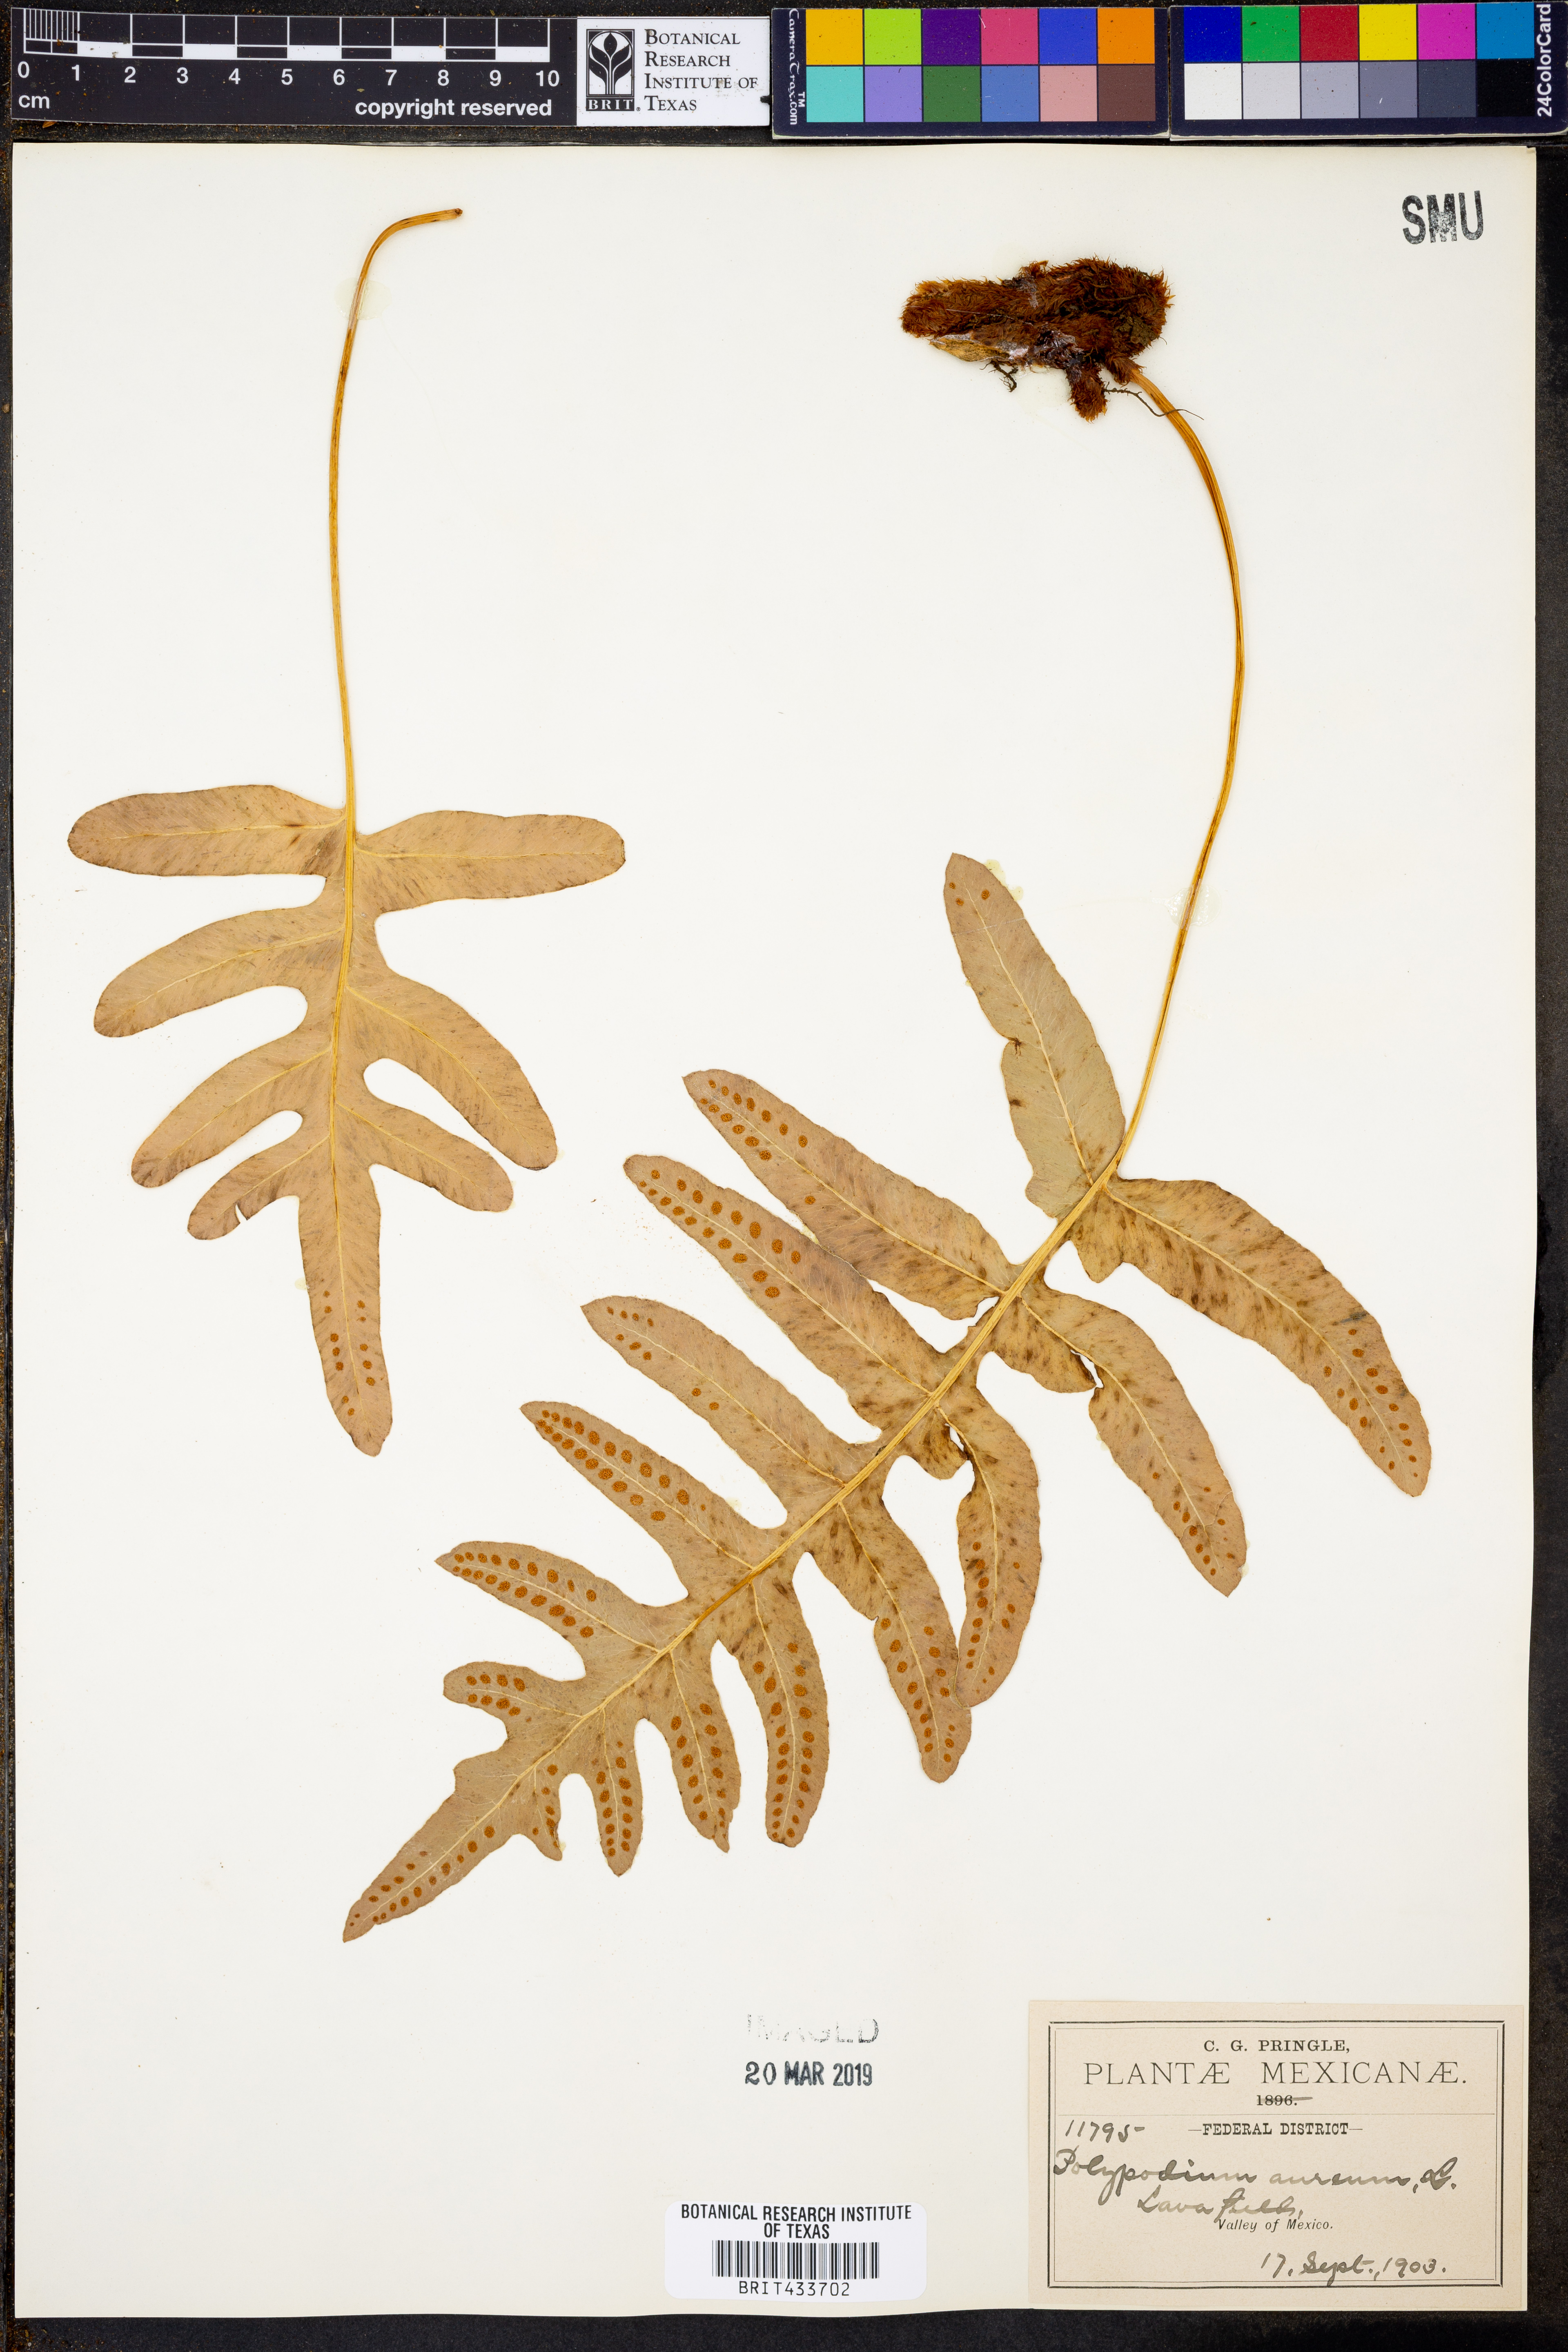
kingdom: Plantae
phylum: Tracheophyta
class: Polypodiopsida
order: Polypodiales
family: Polypodiaceae
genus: Phlebodium
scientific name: Phlebodium aureum
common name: Gold-foot fern
